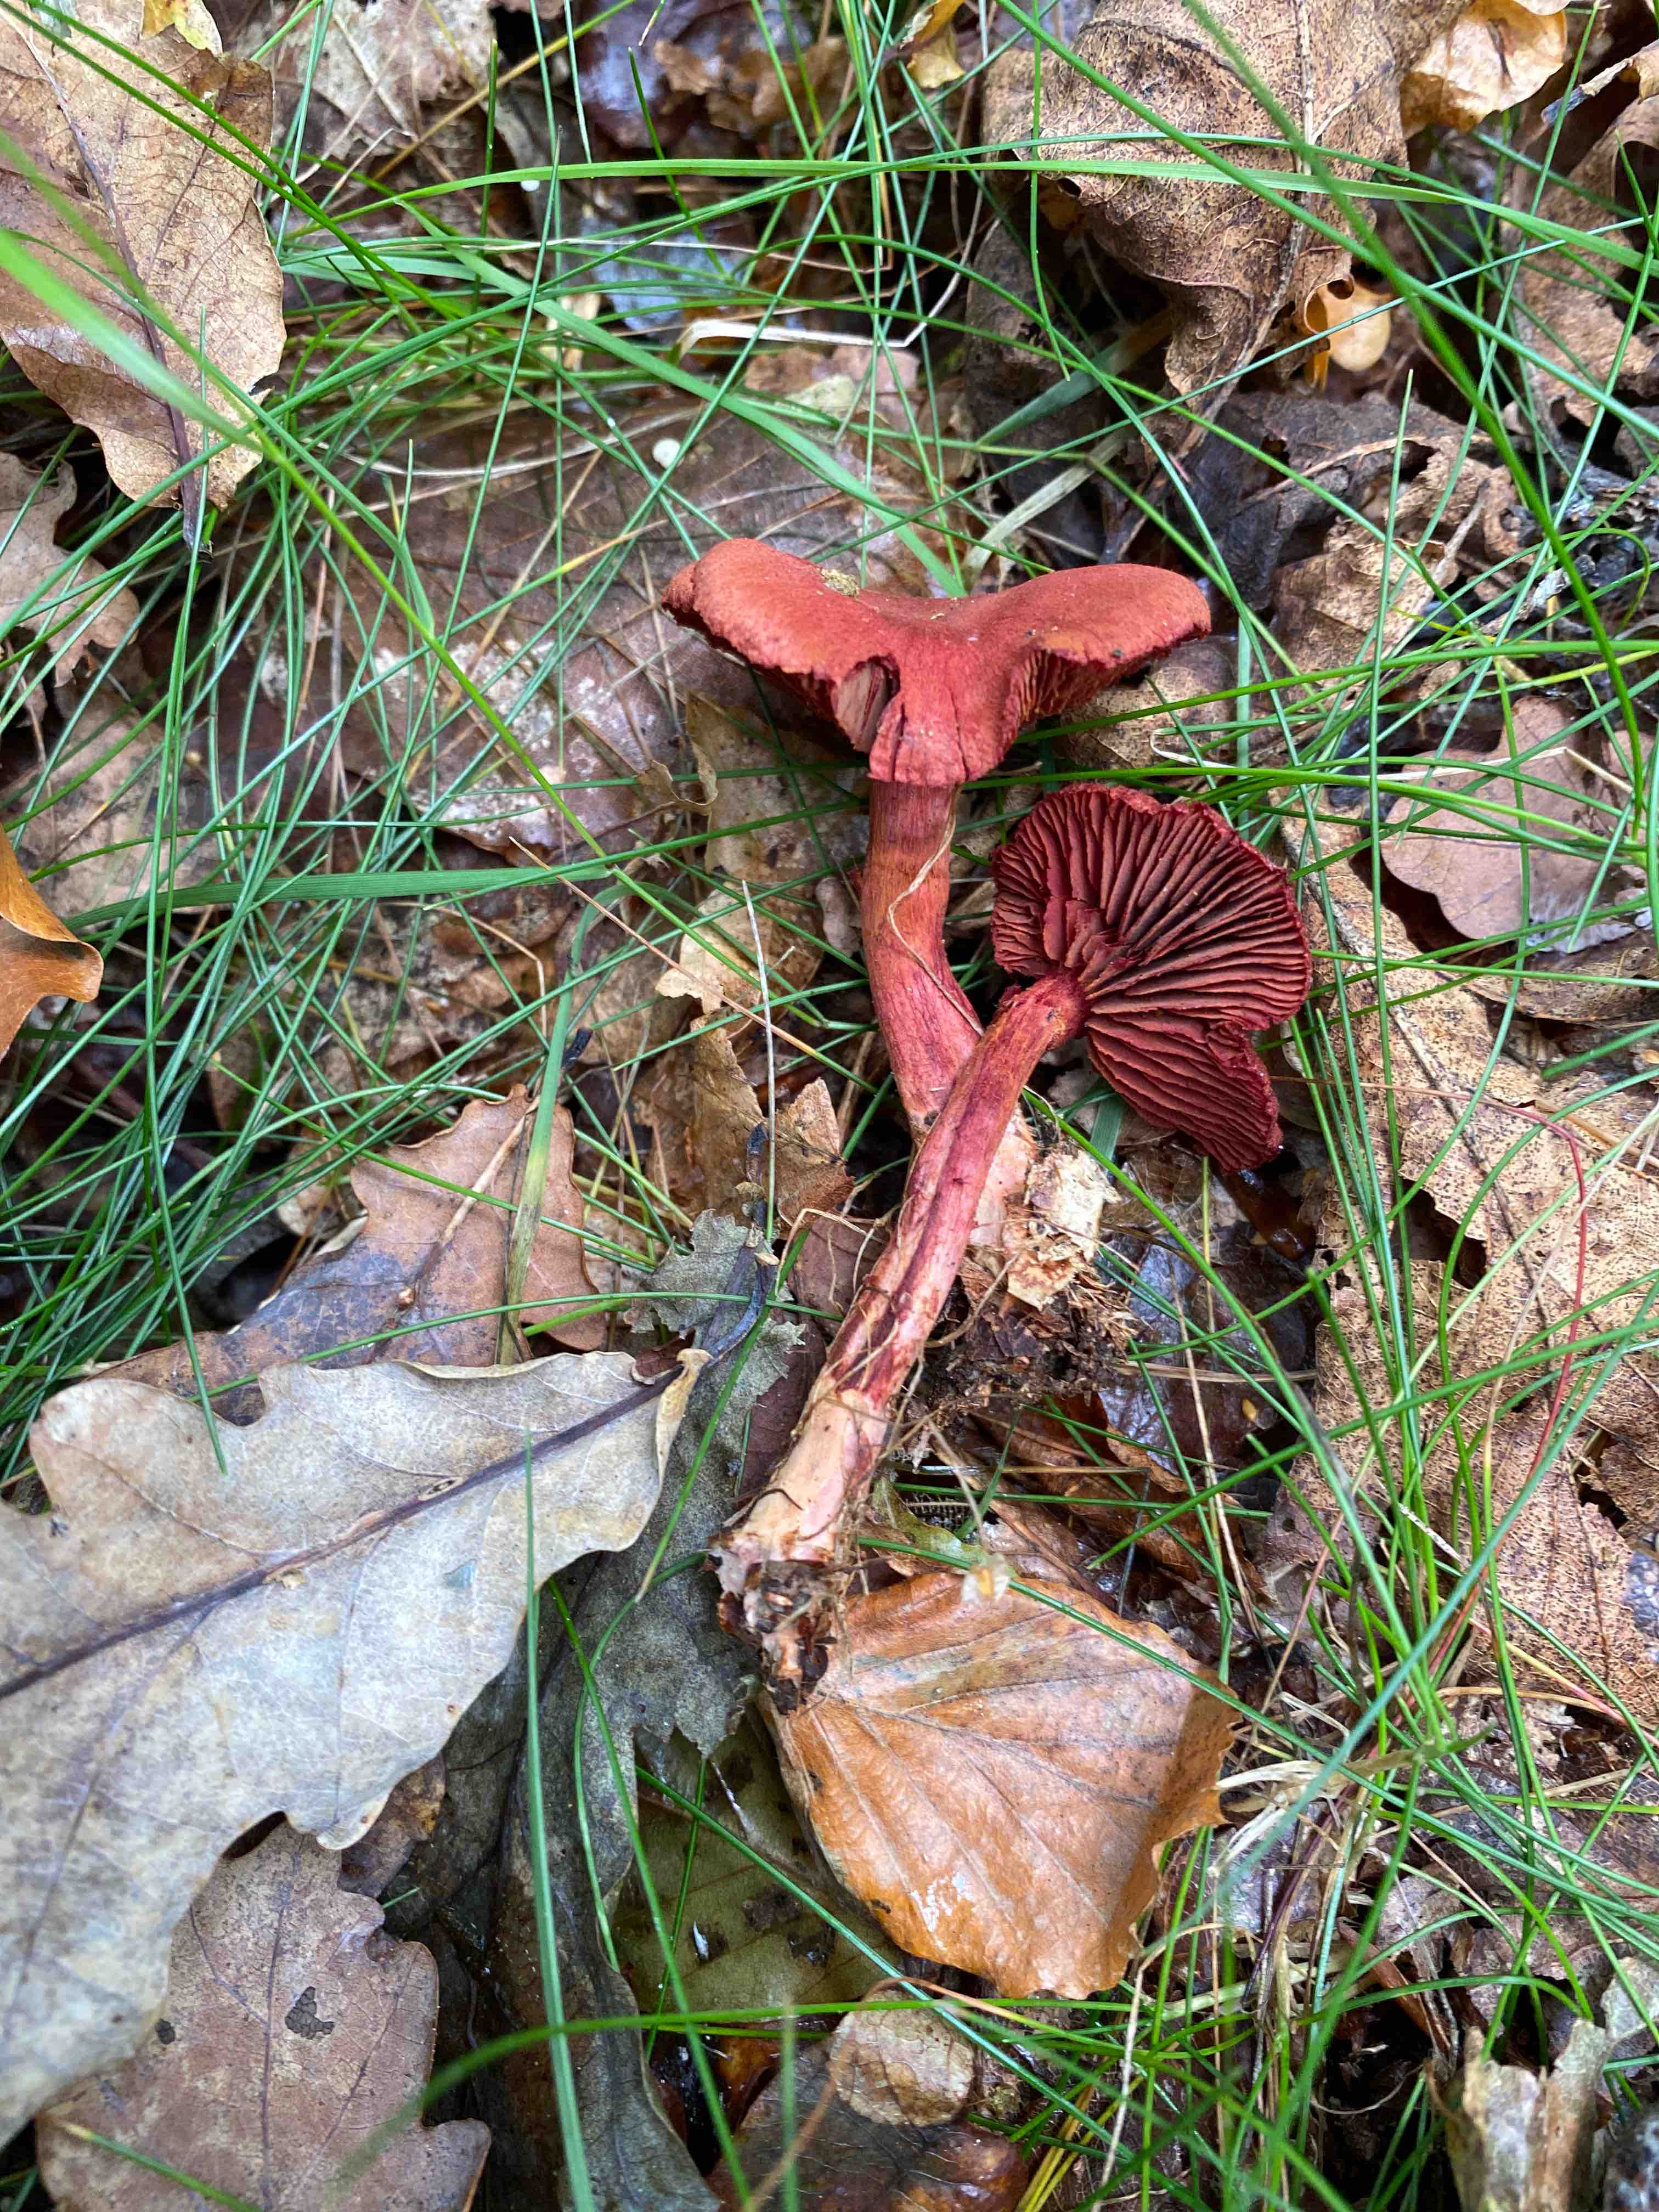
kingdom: Fungi
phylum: Basidiomycota
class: Agaricomycetes
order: Agaricales
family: Cortinariaceae
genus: Cortinarius
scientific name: Cortinarius sanguineus
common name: Bloodred webcap
